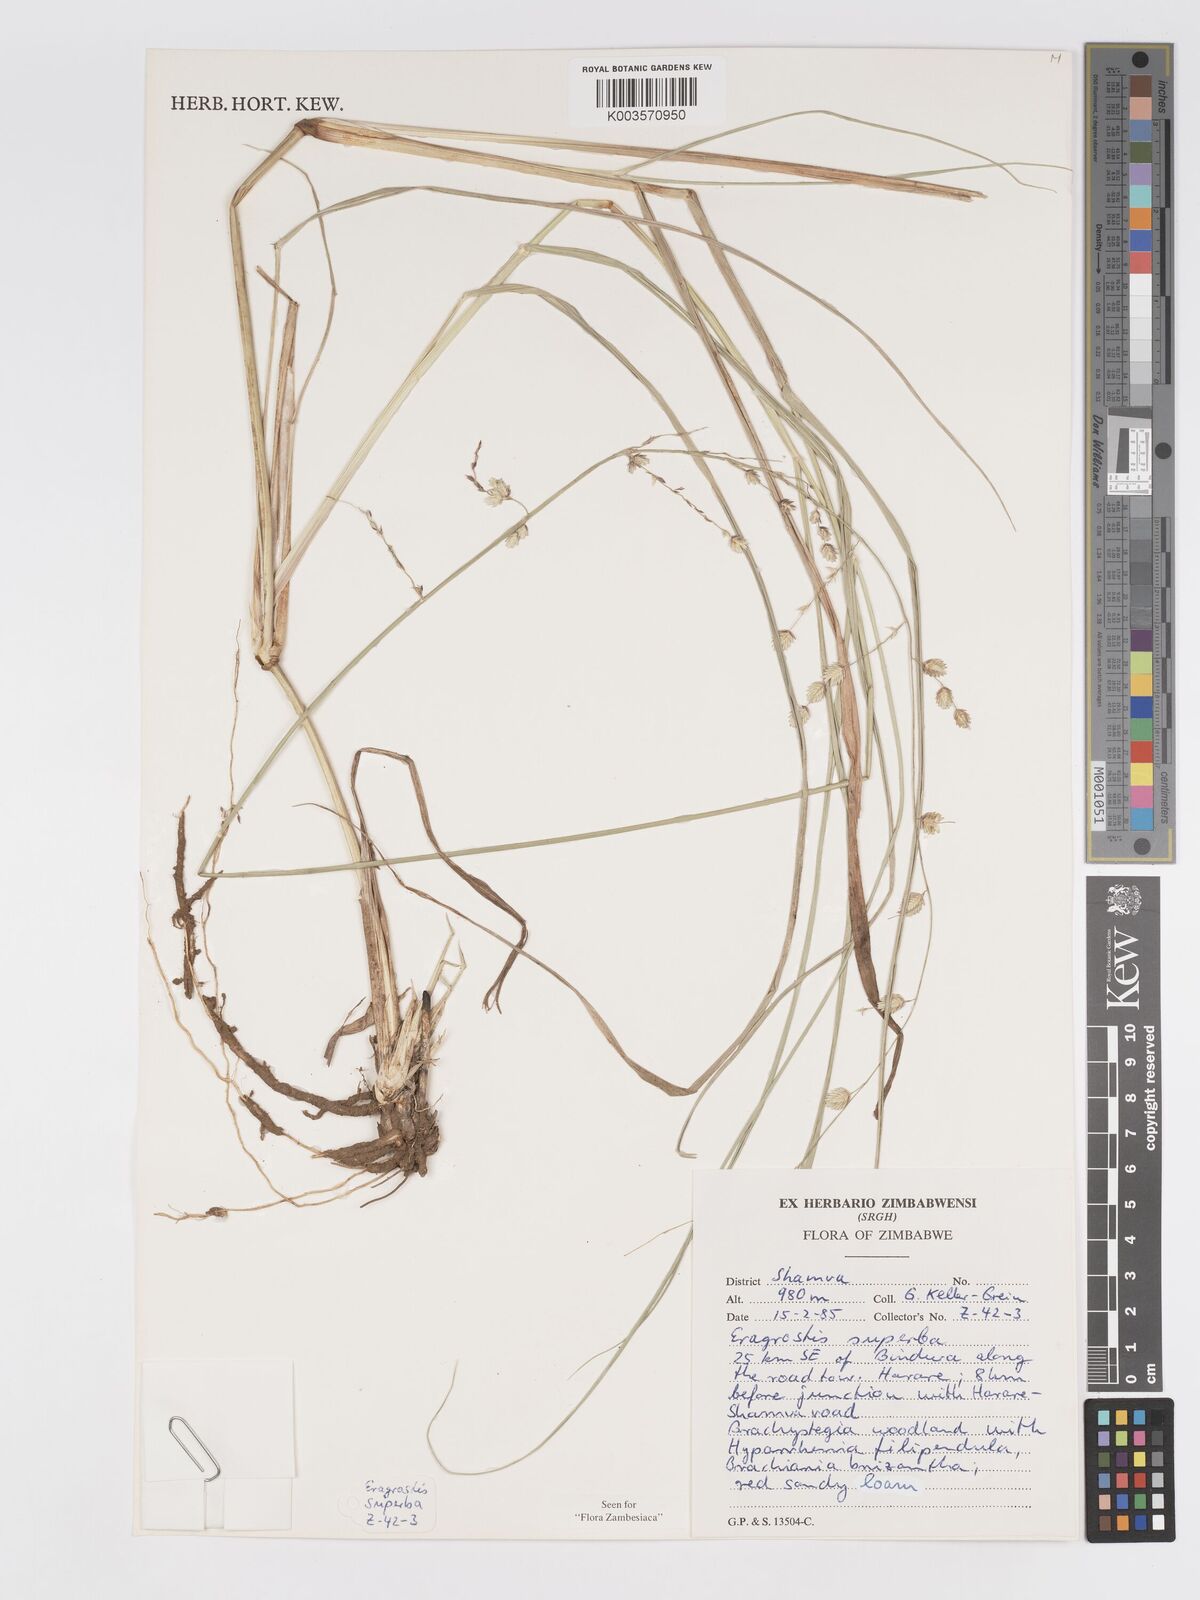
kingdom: Plantae
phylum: Tracheophyta
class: Liliopsida
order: Poales
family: Poaceae
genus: Eragrostis
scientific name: Eragrostis superba
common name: Wilman lovegrass
